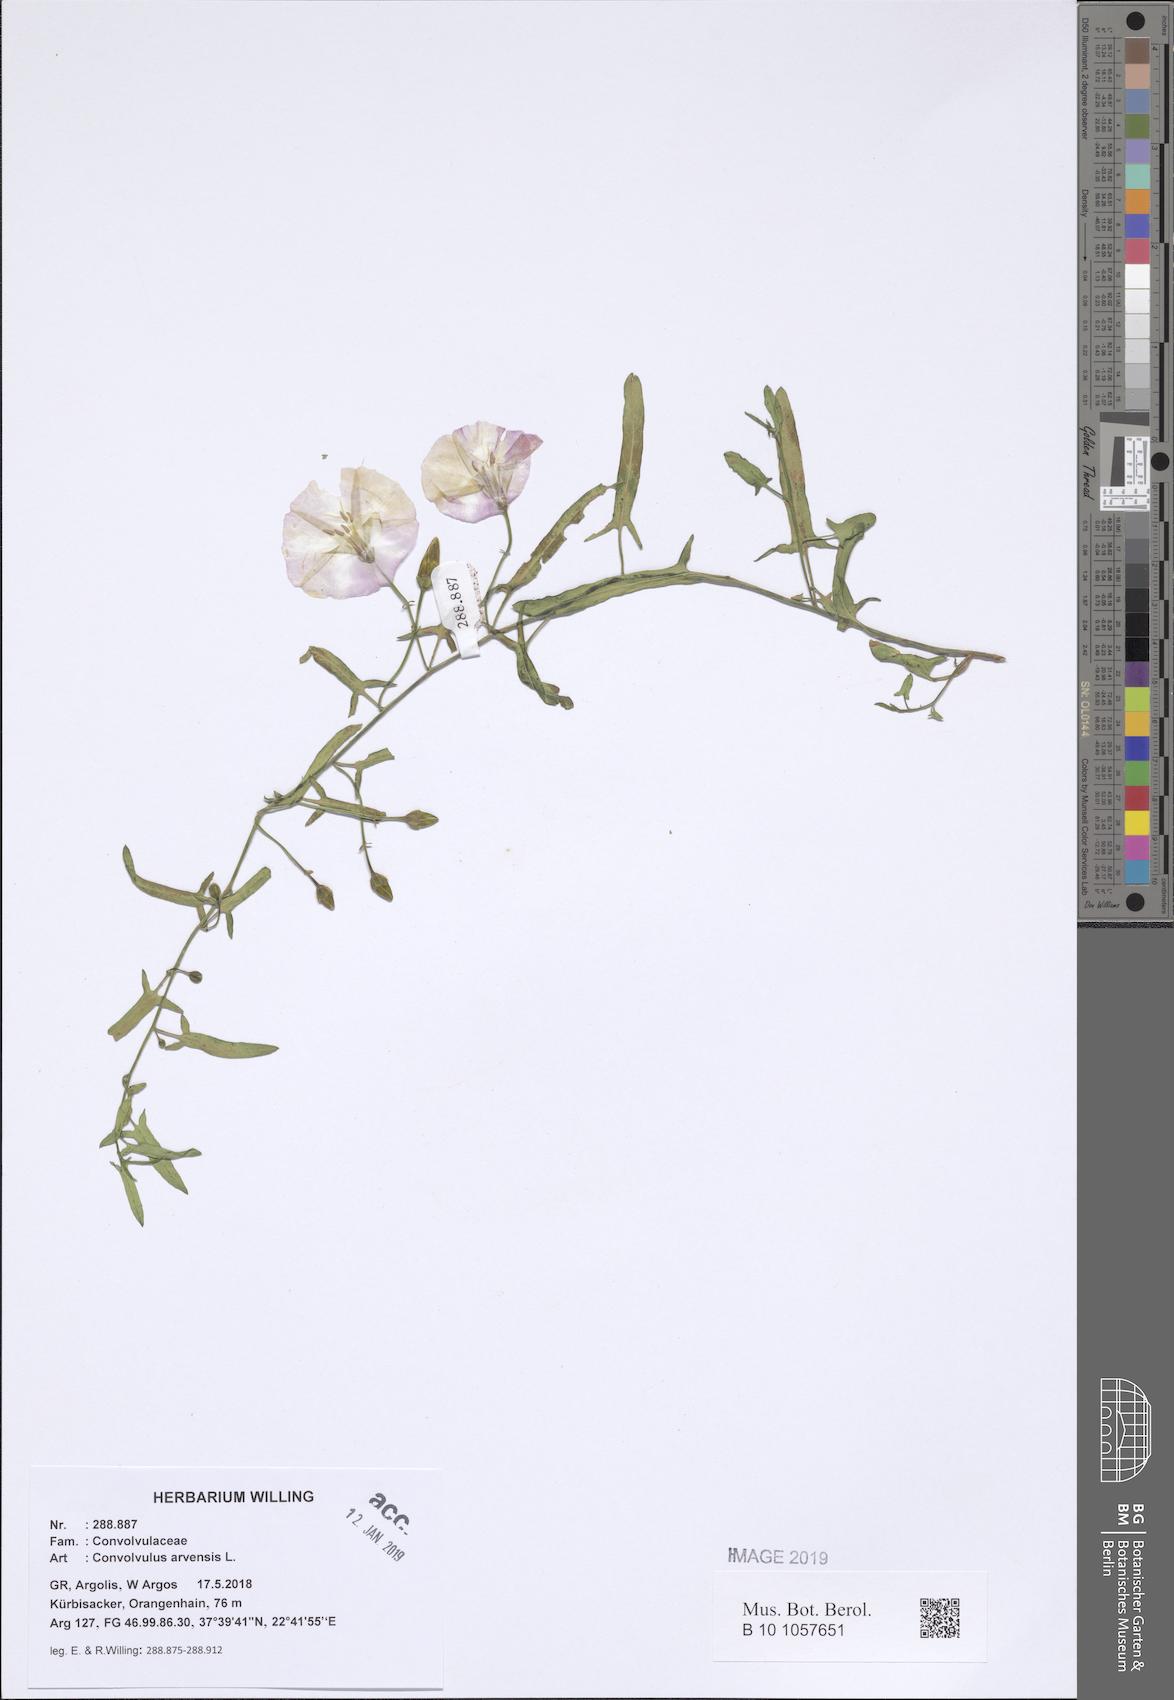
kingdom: Plantae
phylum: Tracheophyta
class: Magnoliopsida
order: Solanales
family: Convolvulaceae
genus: Convolvulus
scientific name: Convolvulus arvensis
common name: Field bindweed
